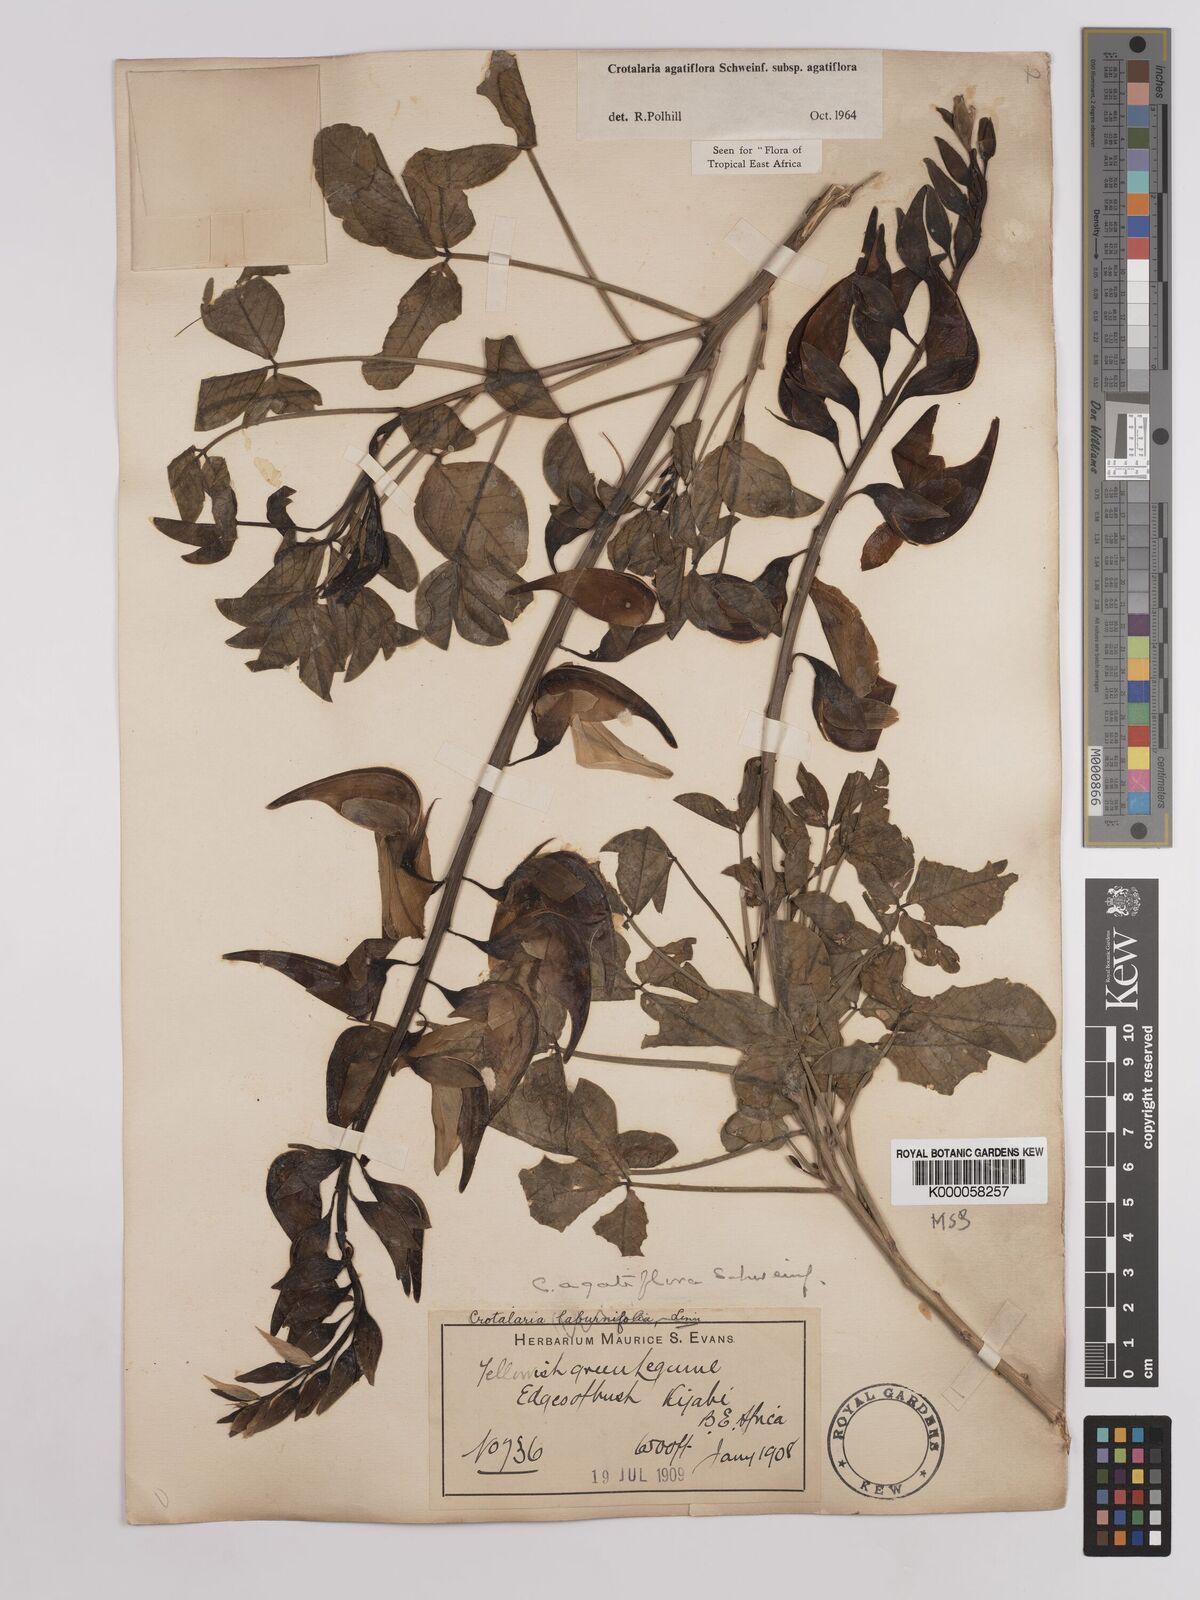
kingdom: Plantae
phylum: Tracheophyta
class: Magnoliopsida
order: Fabales
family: Fabaceae
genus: Crotalaria
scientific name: Crotalaria
